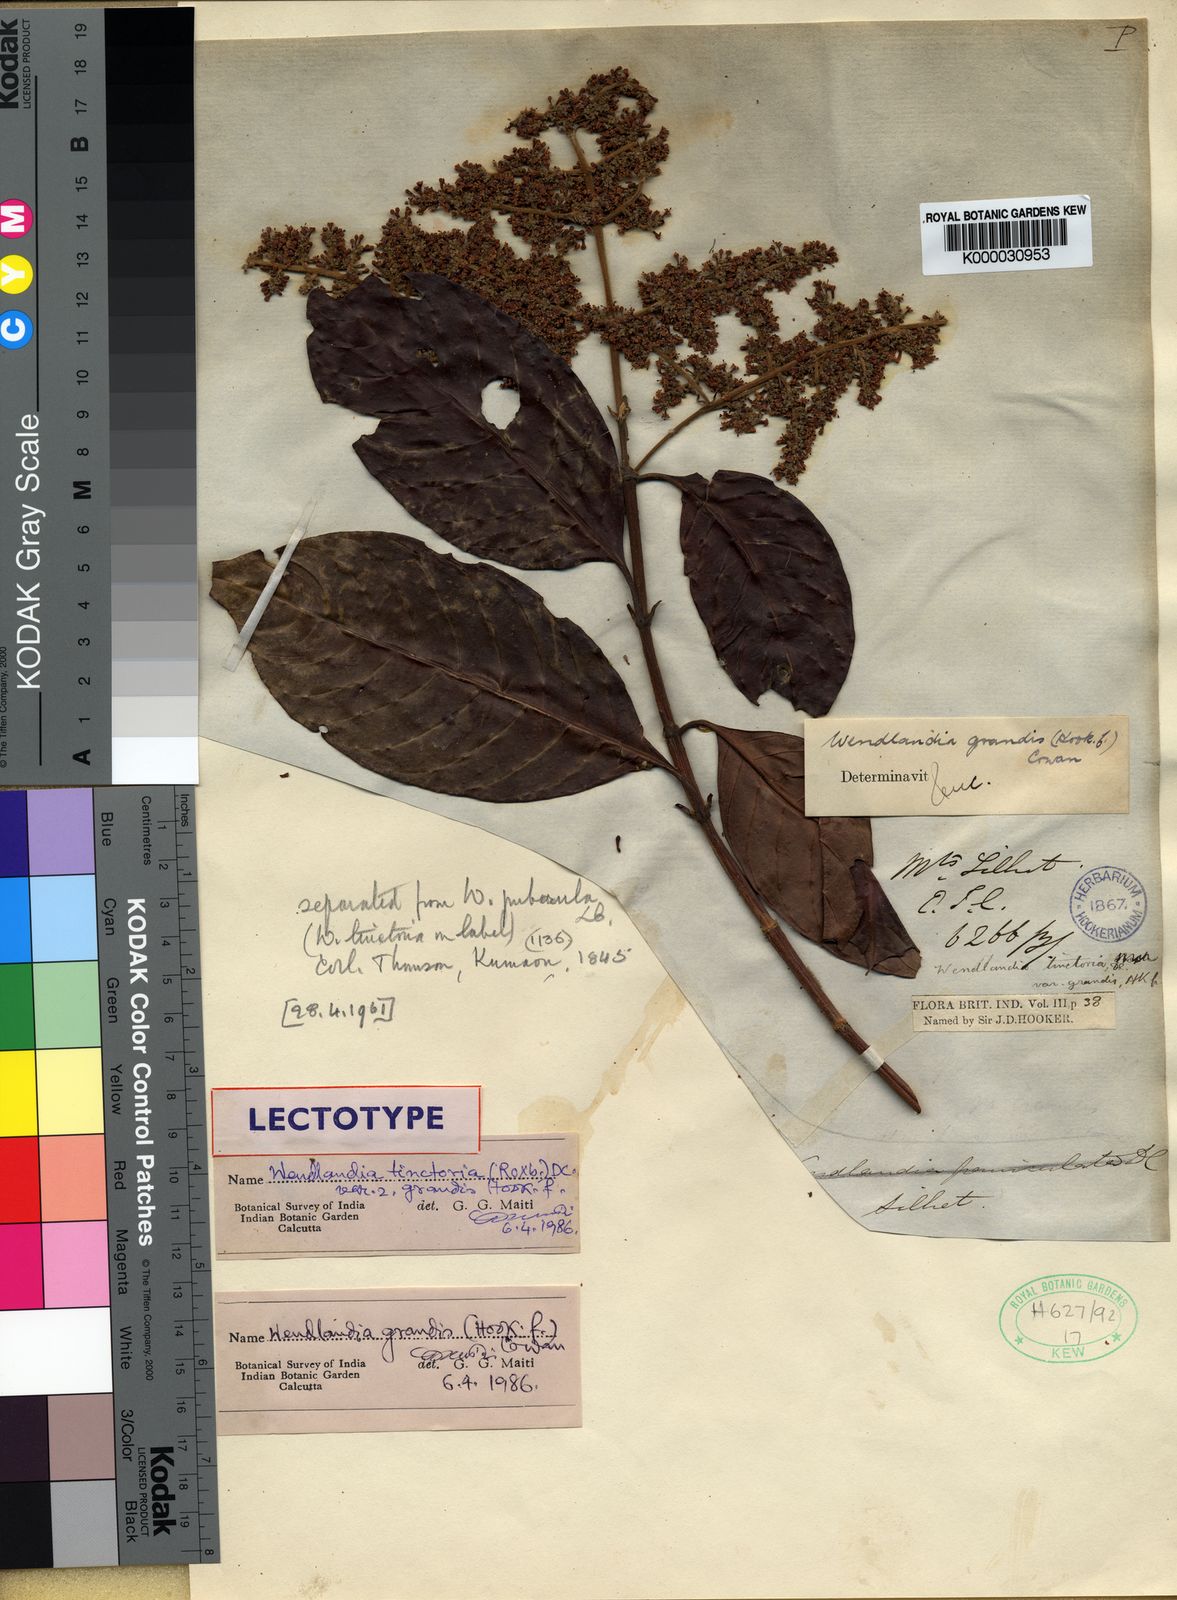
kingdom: Plantae
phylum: Tracheophyta
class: Magnoliopsida
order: Gentianales
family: Rubiaceae
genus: Wendlandia
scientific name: Wendlandia budleioides
